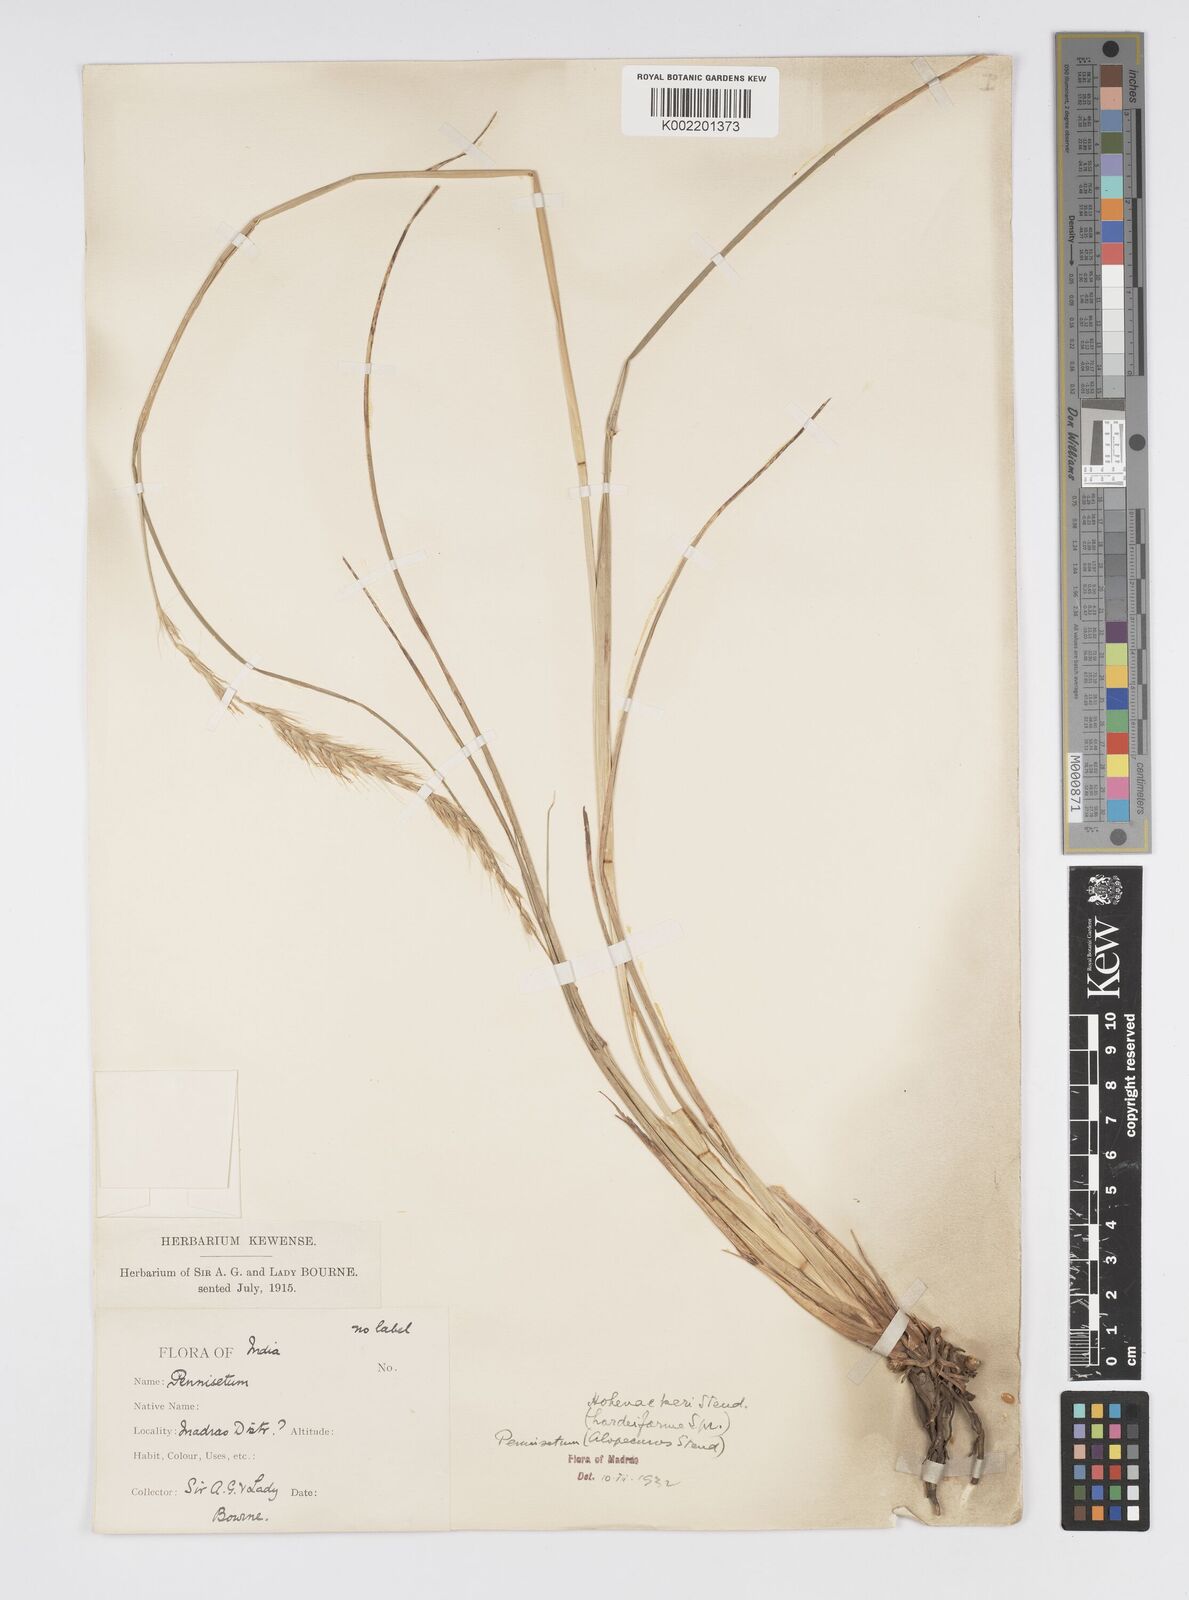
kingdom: Plantae
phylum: Tracheophyta
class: Liliopsida
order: Poales
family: Poaceae
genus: Cenchrus
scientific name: Cenchrus hohenackeri
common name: Moya grass
